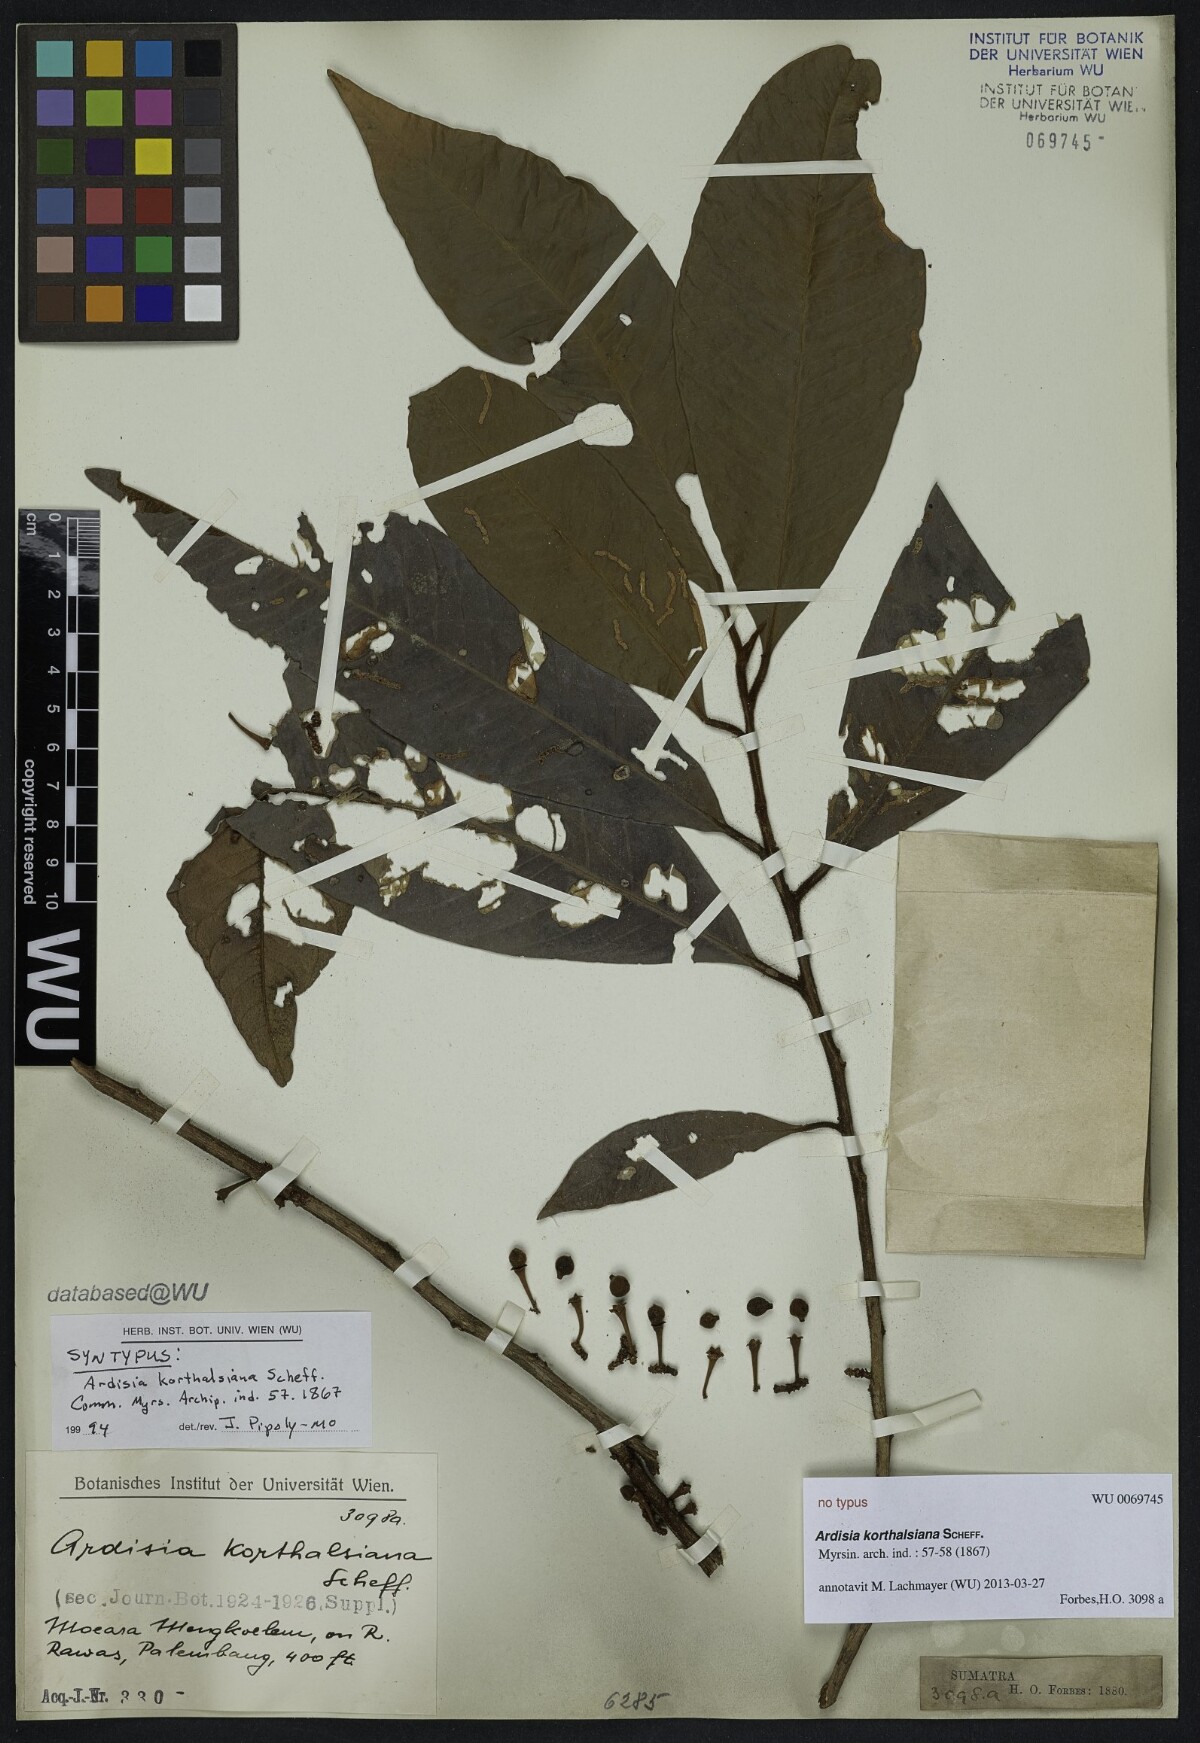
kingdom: Plantae
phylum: Tracheophyta
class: Magnoliopsida
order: Ericales
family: Primulaceae
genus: Ardisia
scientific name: Ardisia korthalsiana
